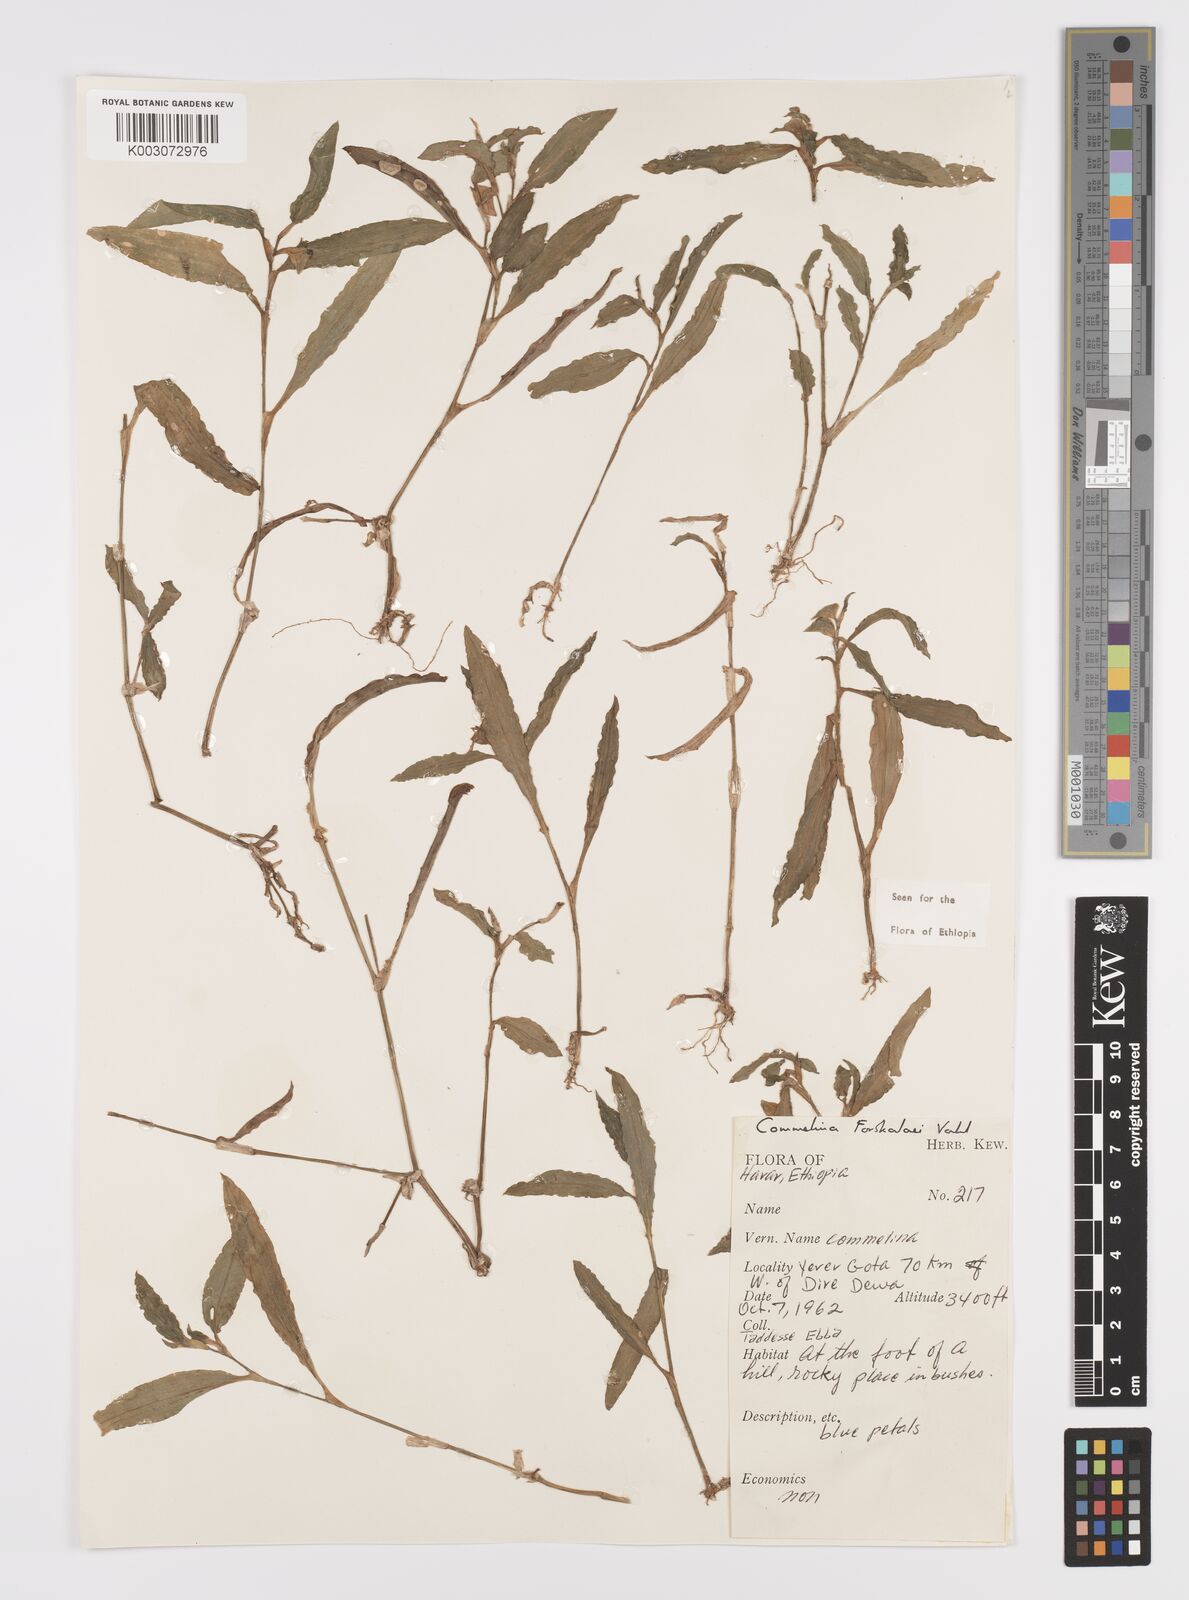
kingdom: Plantae
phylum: Tracheophyta
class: Liliopsida
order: Commelinales
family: Commelinaceae
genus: Commelina
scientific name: Commelina forskaolii
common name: Rat's ear
